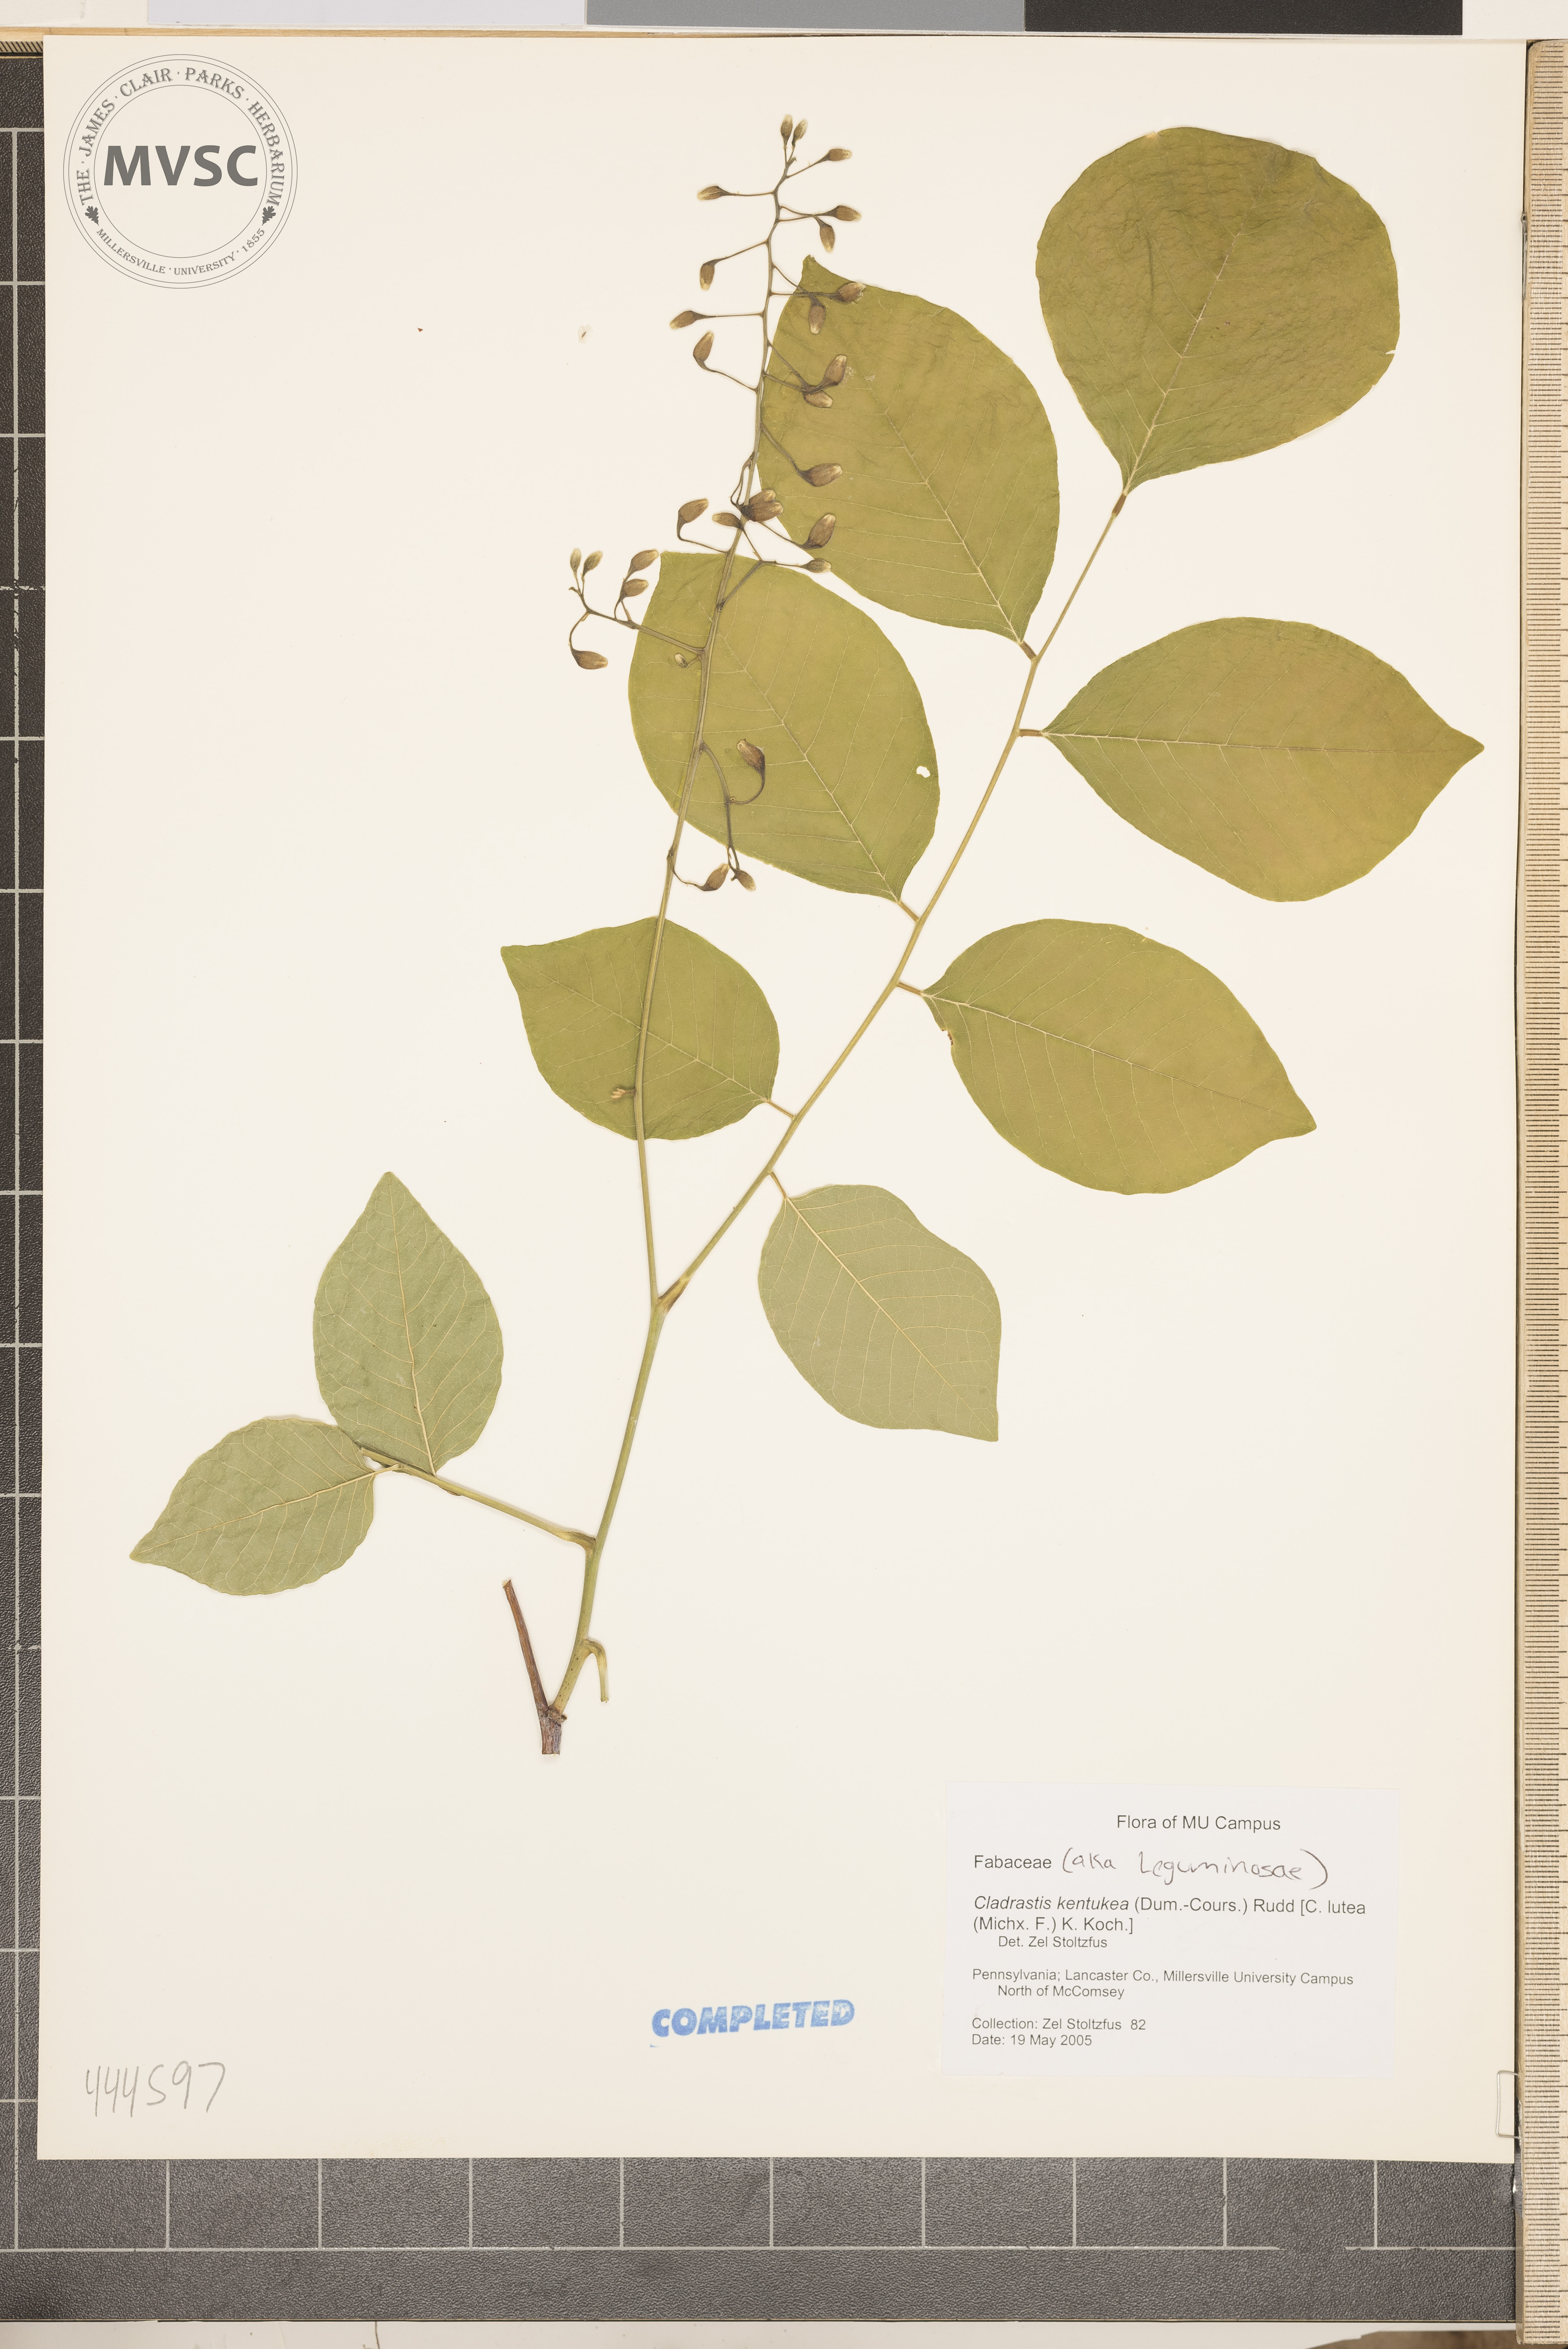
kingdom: Plantae
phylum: Tracheophyta
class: Magnoliopsida
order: Fabales
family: Fabaceae
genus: Cladrastis
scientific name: Cladrastis kentukea
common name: Kentucky yellow-wood
